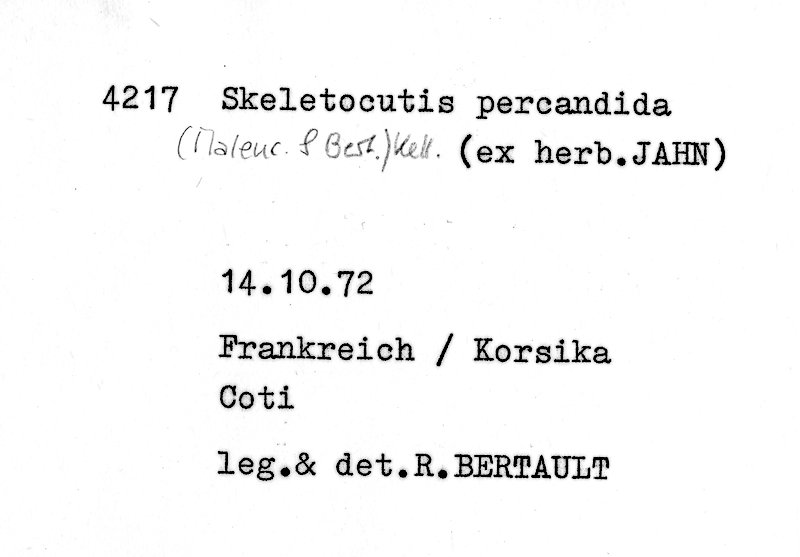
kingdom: Fungi
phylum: Basidiomycota
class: Agaricomycetes
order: Polyporales
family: Incrustoporiaceae
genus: Skeletocutis
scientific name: Skeletocutis percandida
